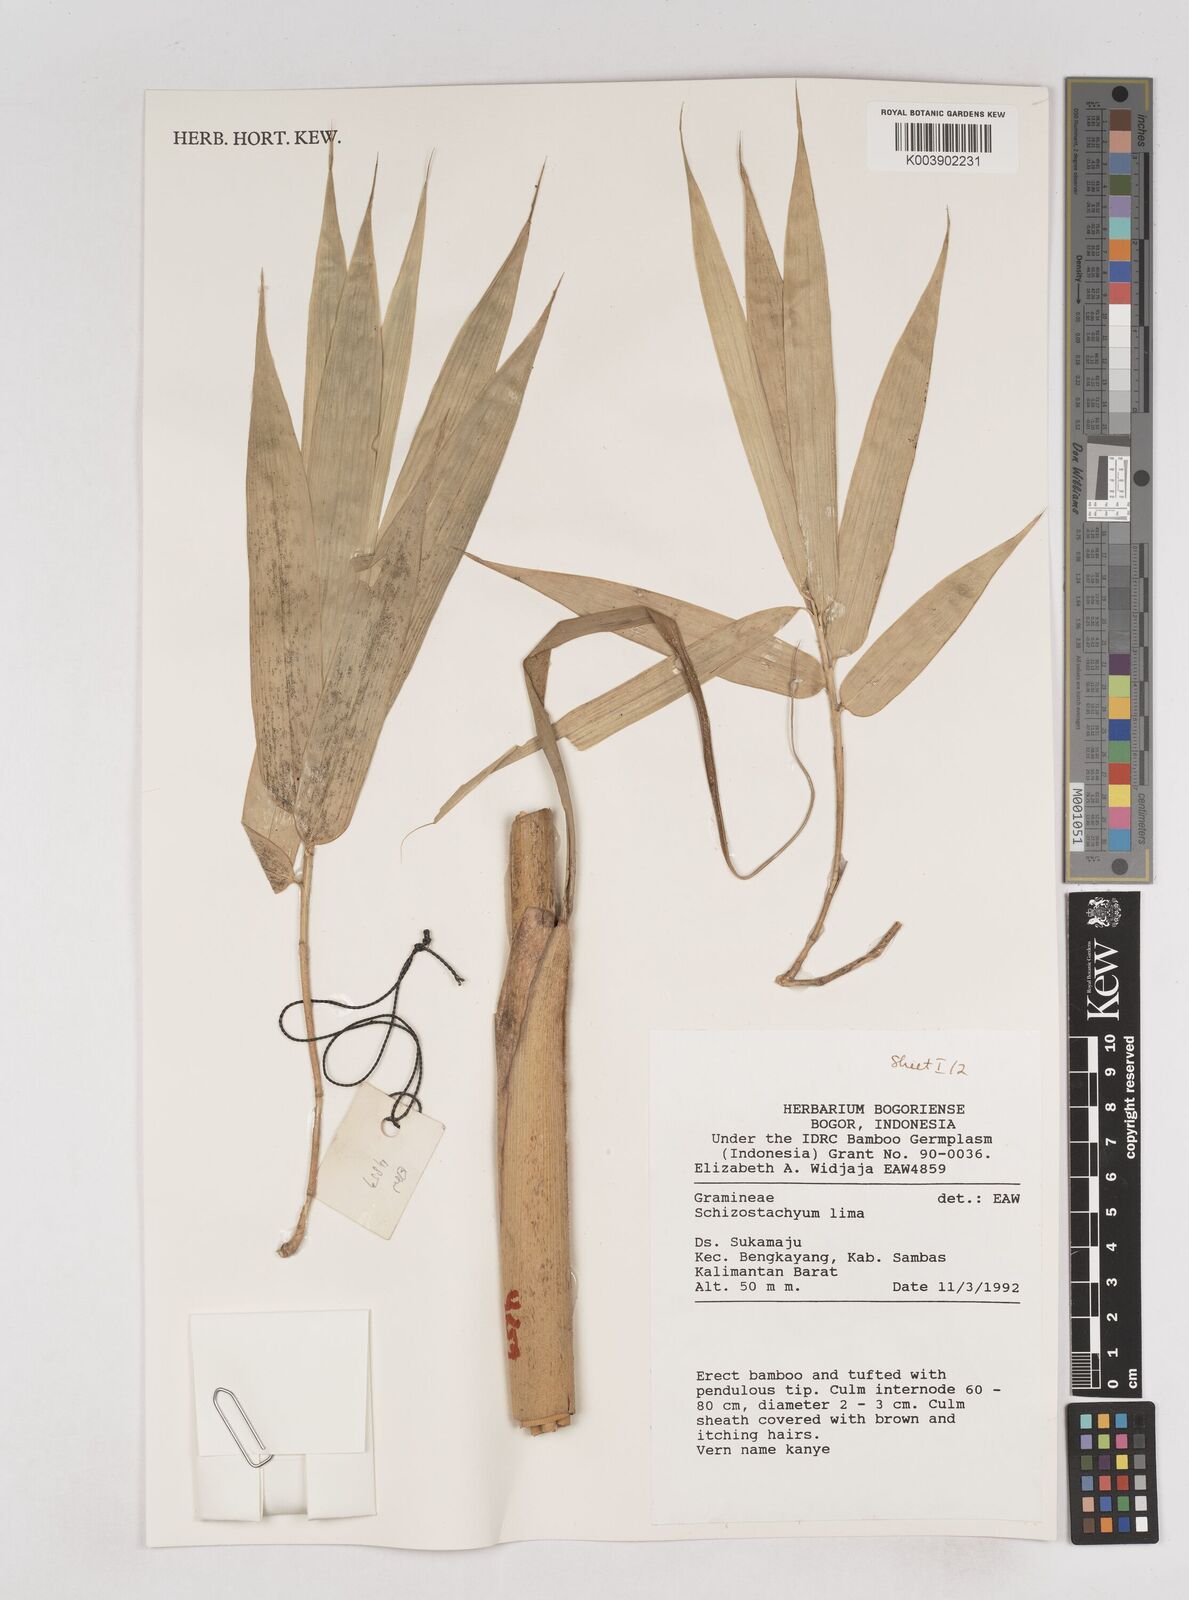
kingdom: Plantae
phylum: Tracheophyta
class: Liliopsida
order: Poales
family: Poaceae
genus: Schizostachyum
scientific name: Schizostachyum lima
